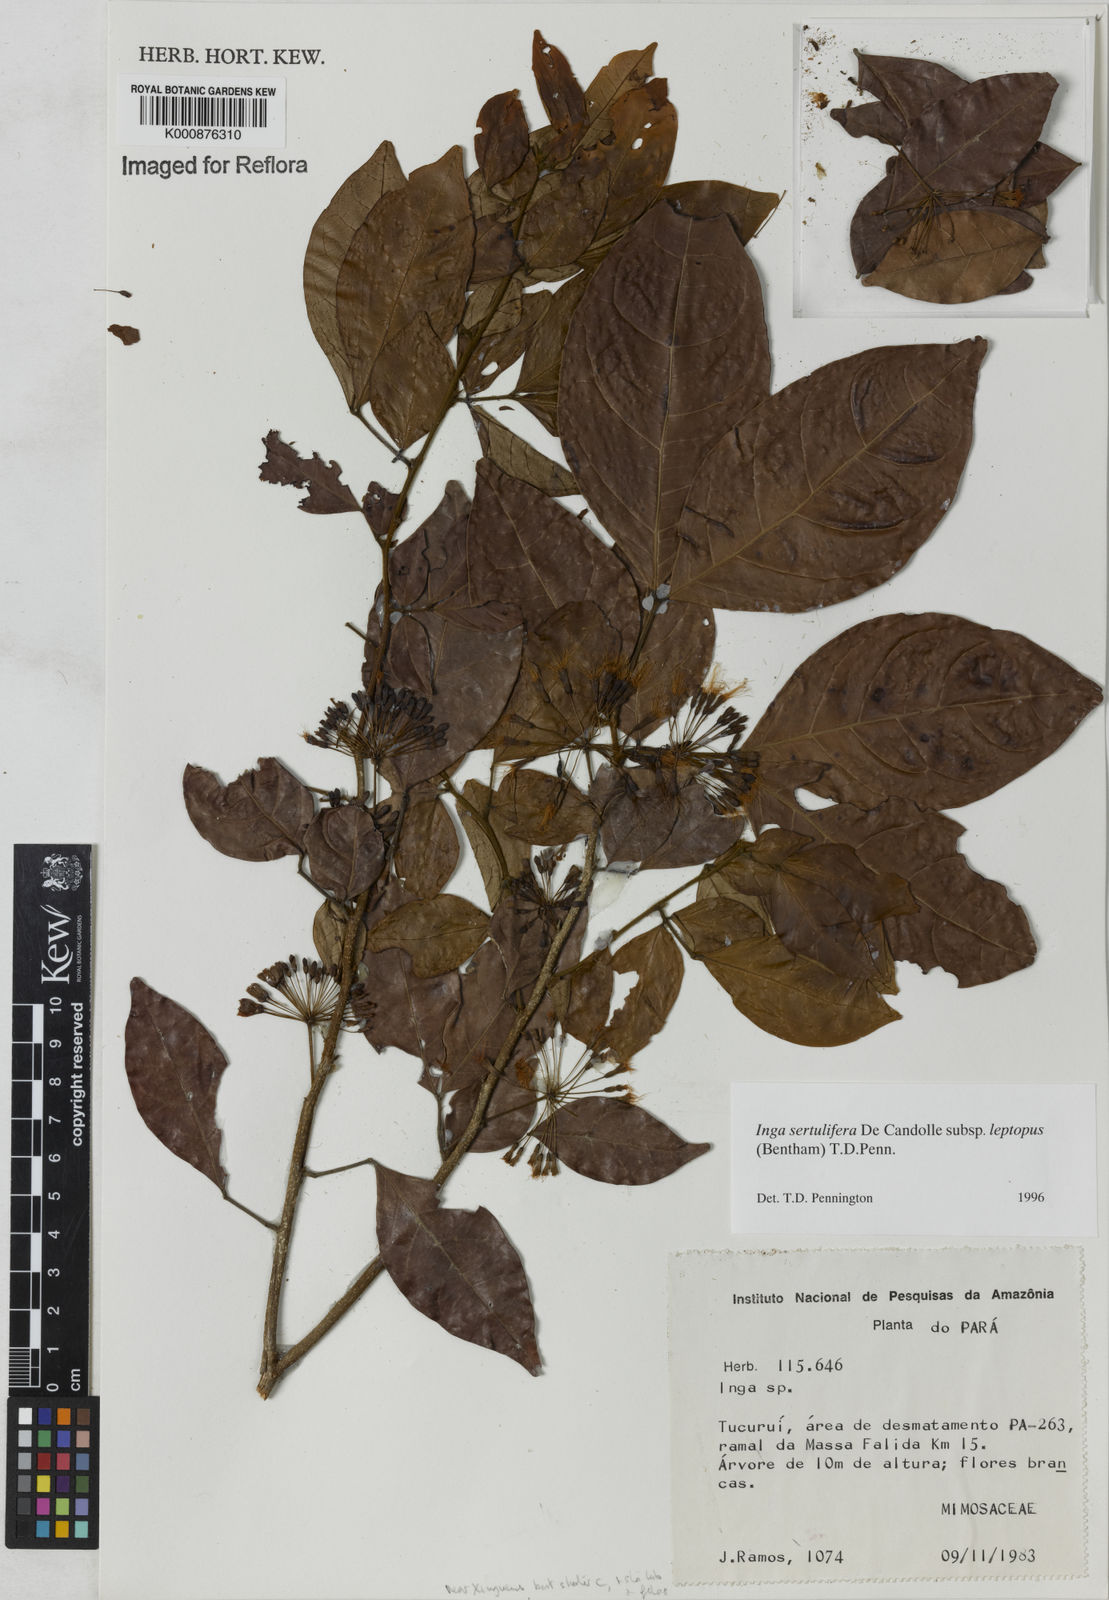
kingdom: Plantae
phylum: Tracheophyta
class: Magnoliopsida
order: Fabales
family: Fabaceae
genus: Inga
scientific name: Inga sertulifera
